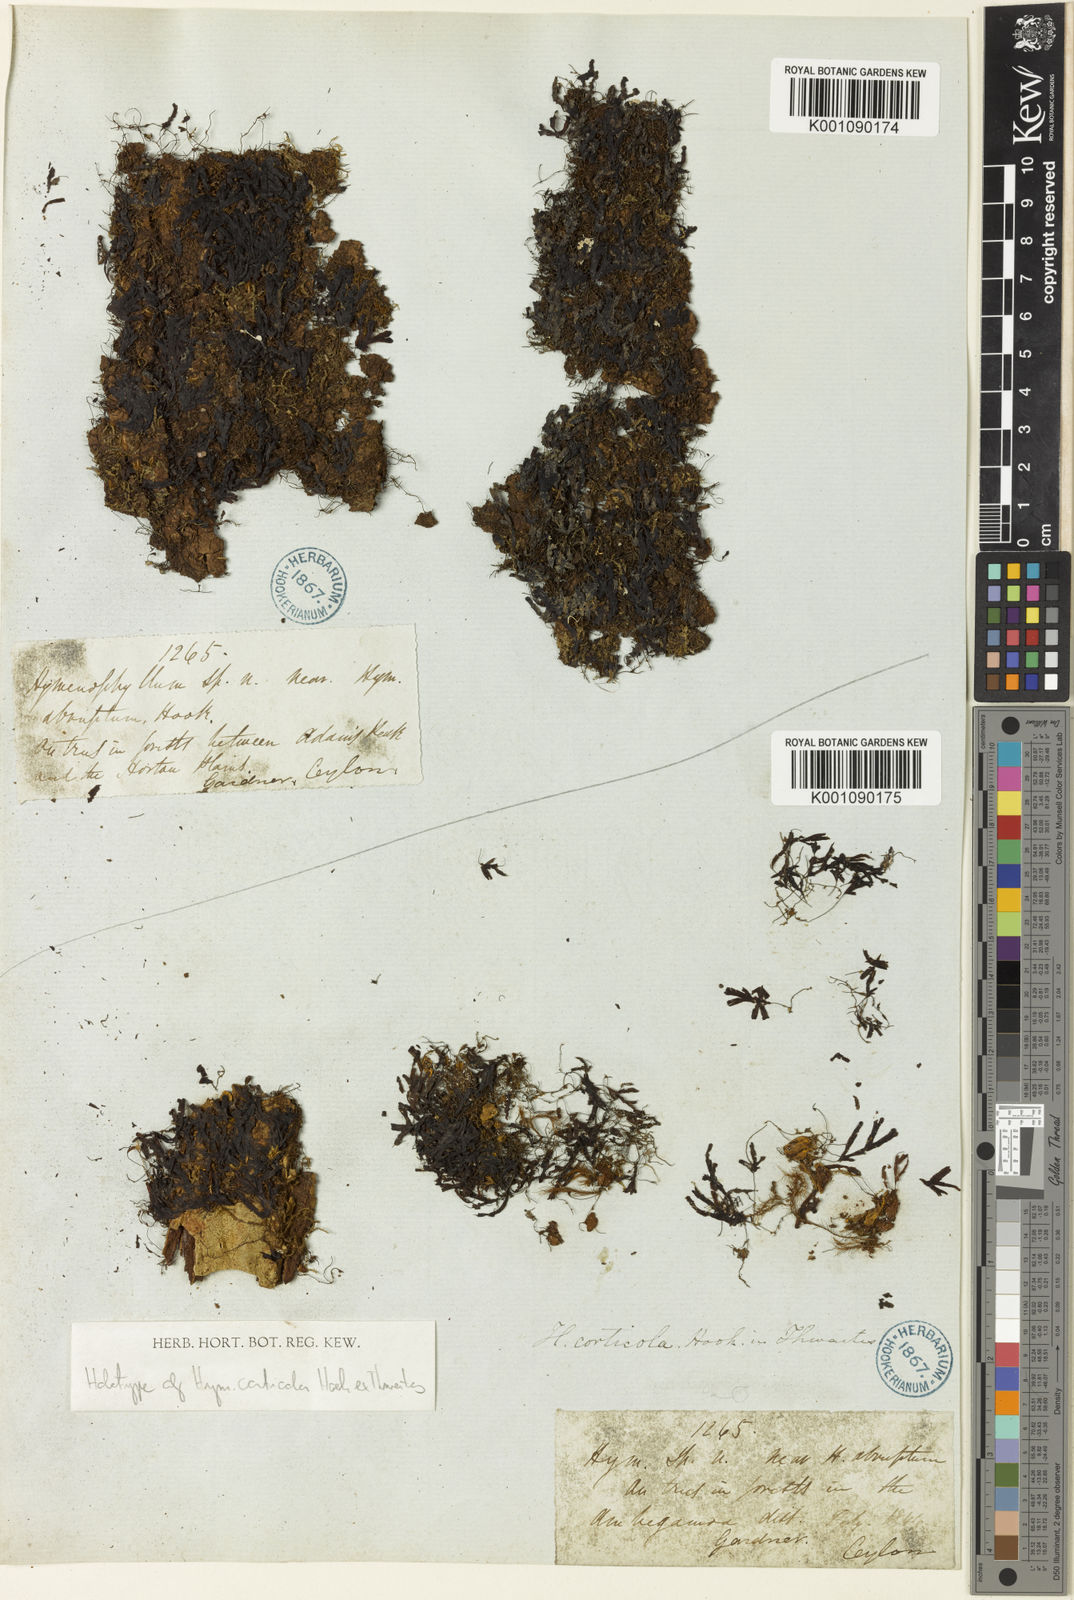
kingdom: Plantae
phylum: Tracheophyta
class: Polypodiopsida
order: Hymenophyllales
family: Hymenophyllaceae
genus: Hymenophyllum
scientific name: Hymenophyllum nitidulum
